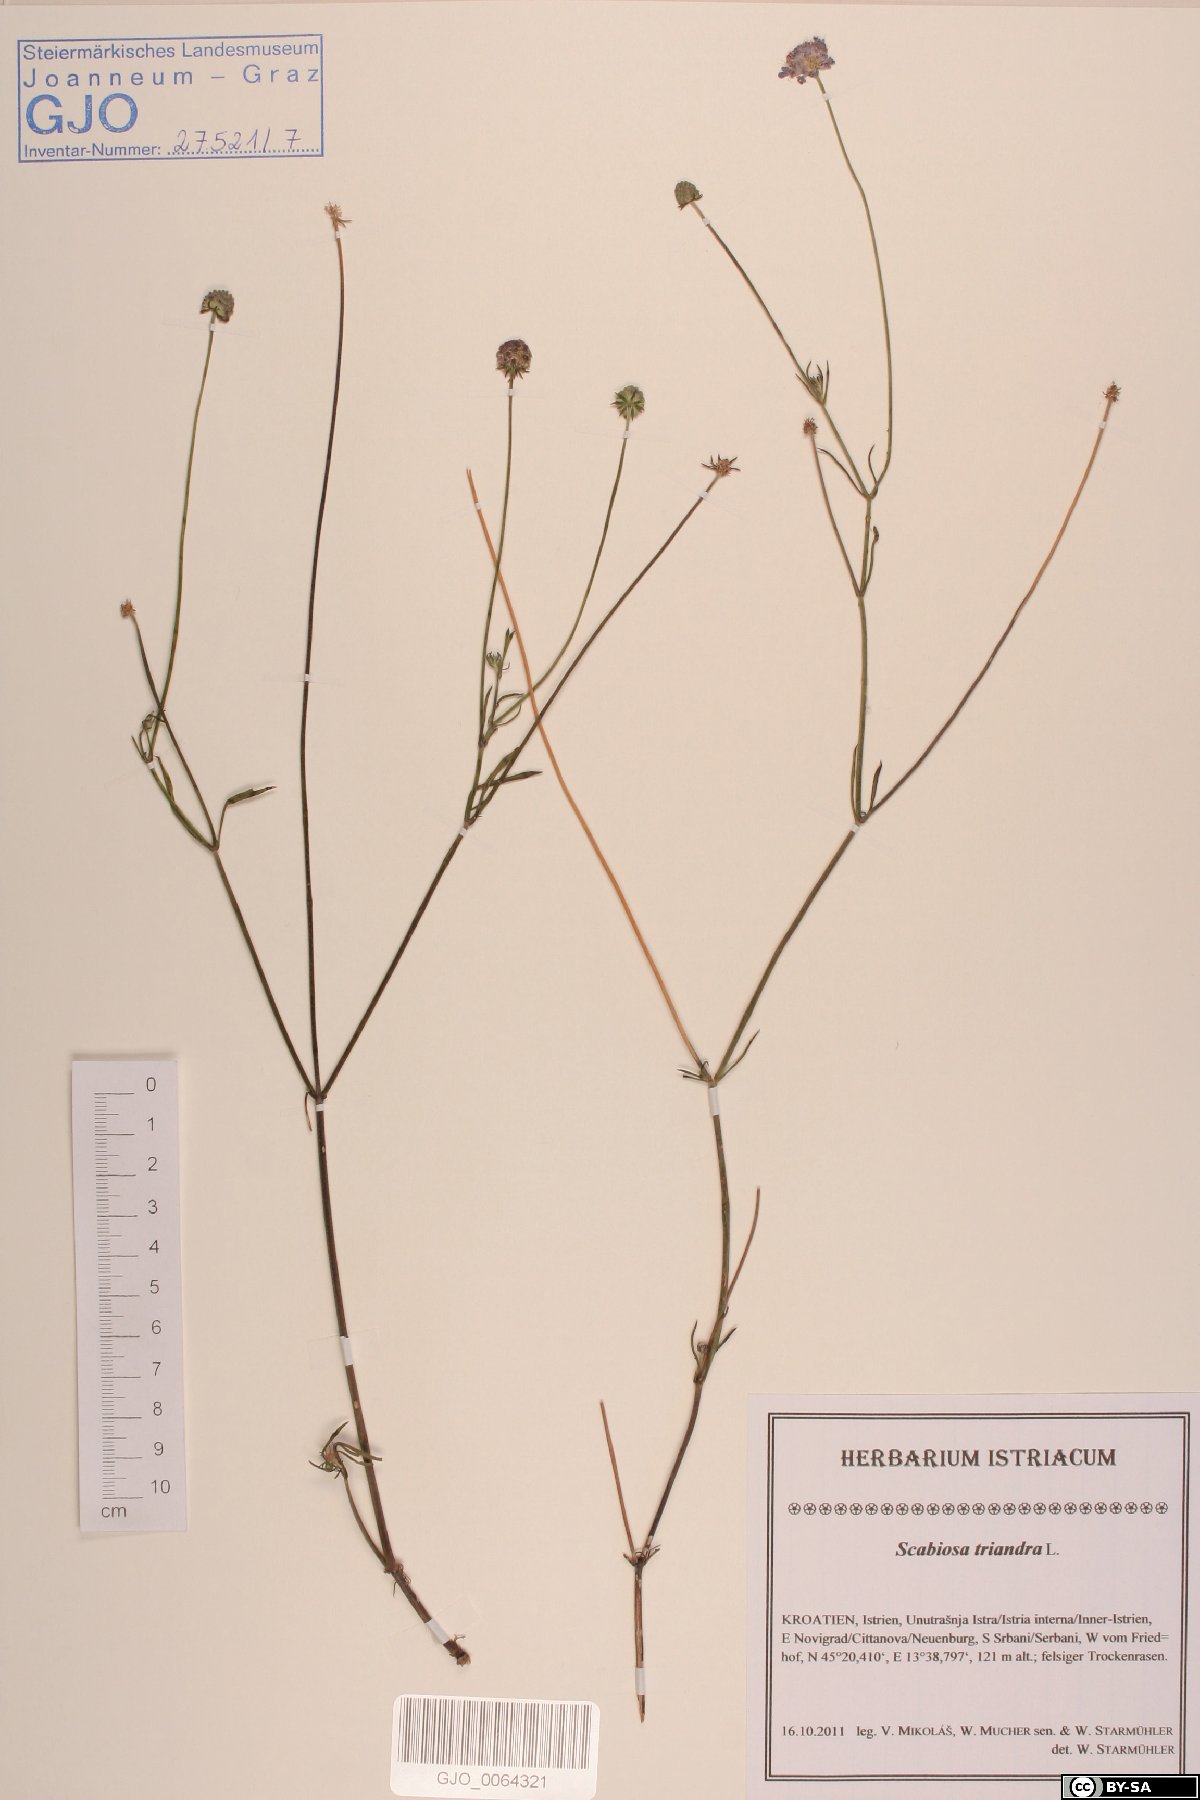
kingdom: Plantae
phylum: Tracheophyta
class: Magnoliopsida
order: Dipsacales
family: Caprifoliaceae
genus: Scabiosa
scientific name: Scabiosa triandra
